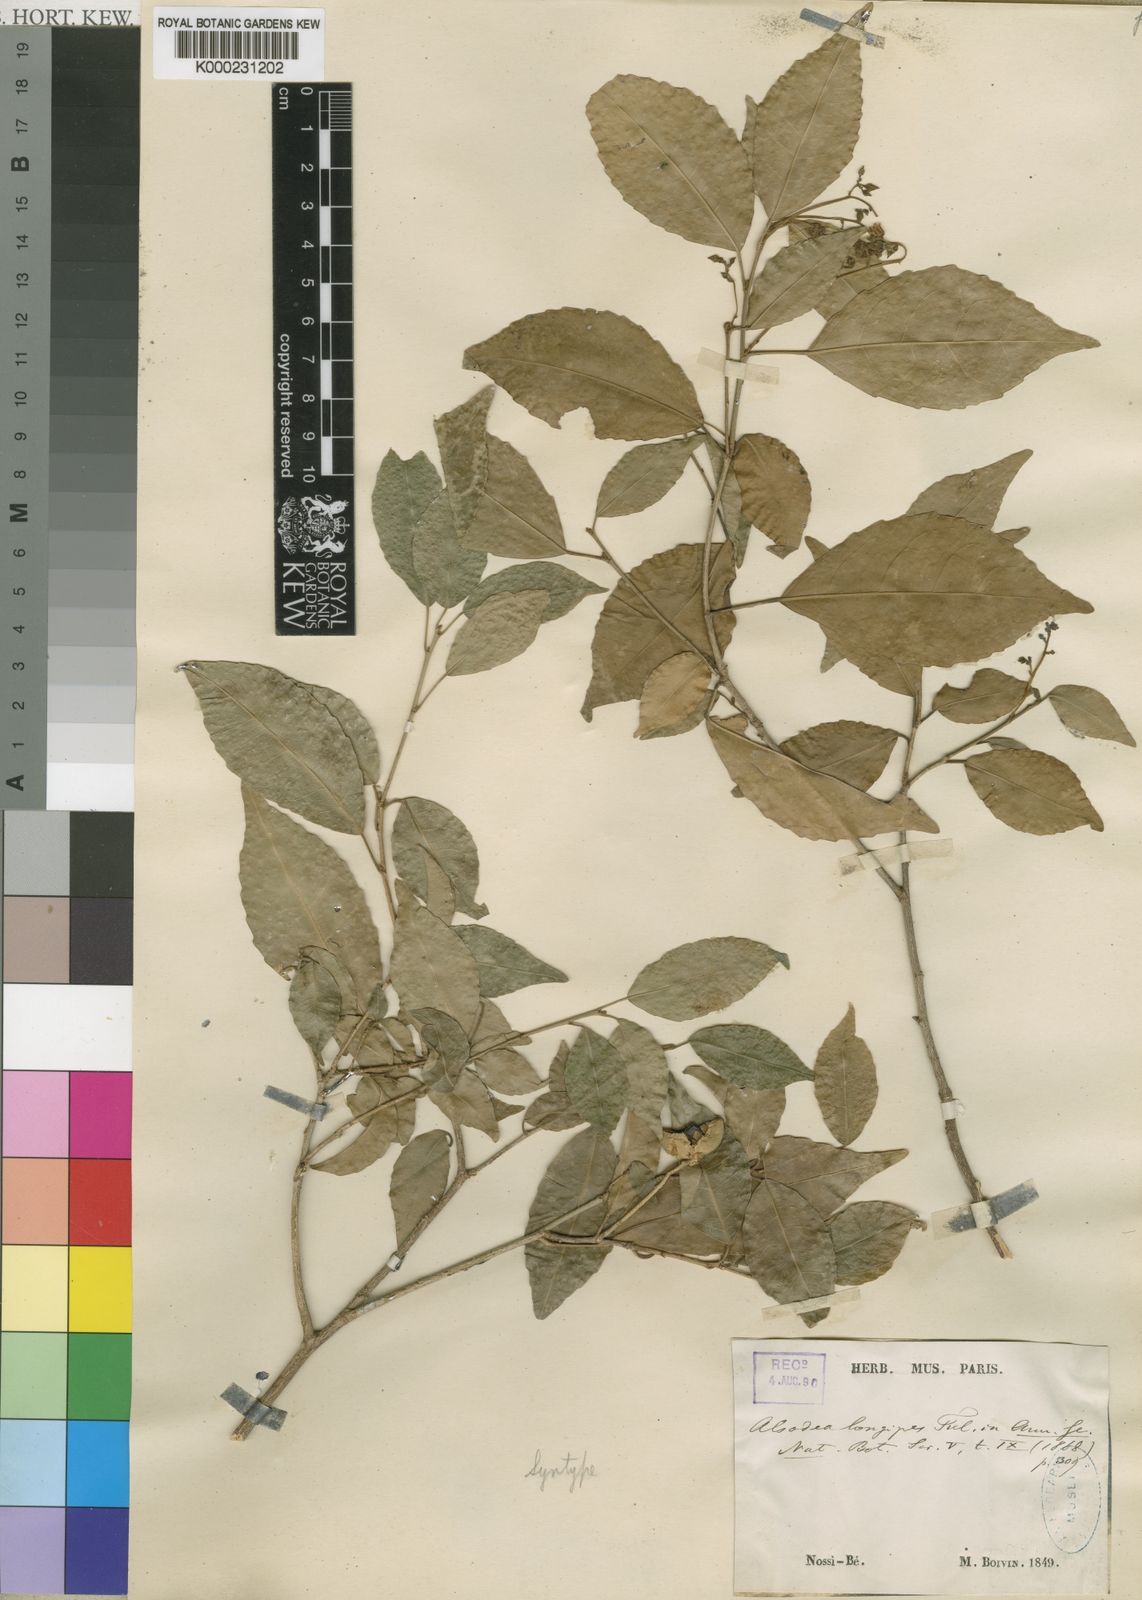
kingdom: Plantae
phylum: Tracheophyta
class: Magnoliopsida
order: Malpighiales
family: Violaceae
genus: Rinorea
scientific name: Rinorea longipes
